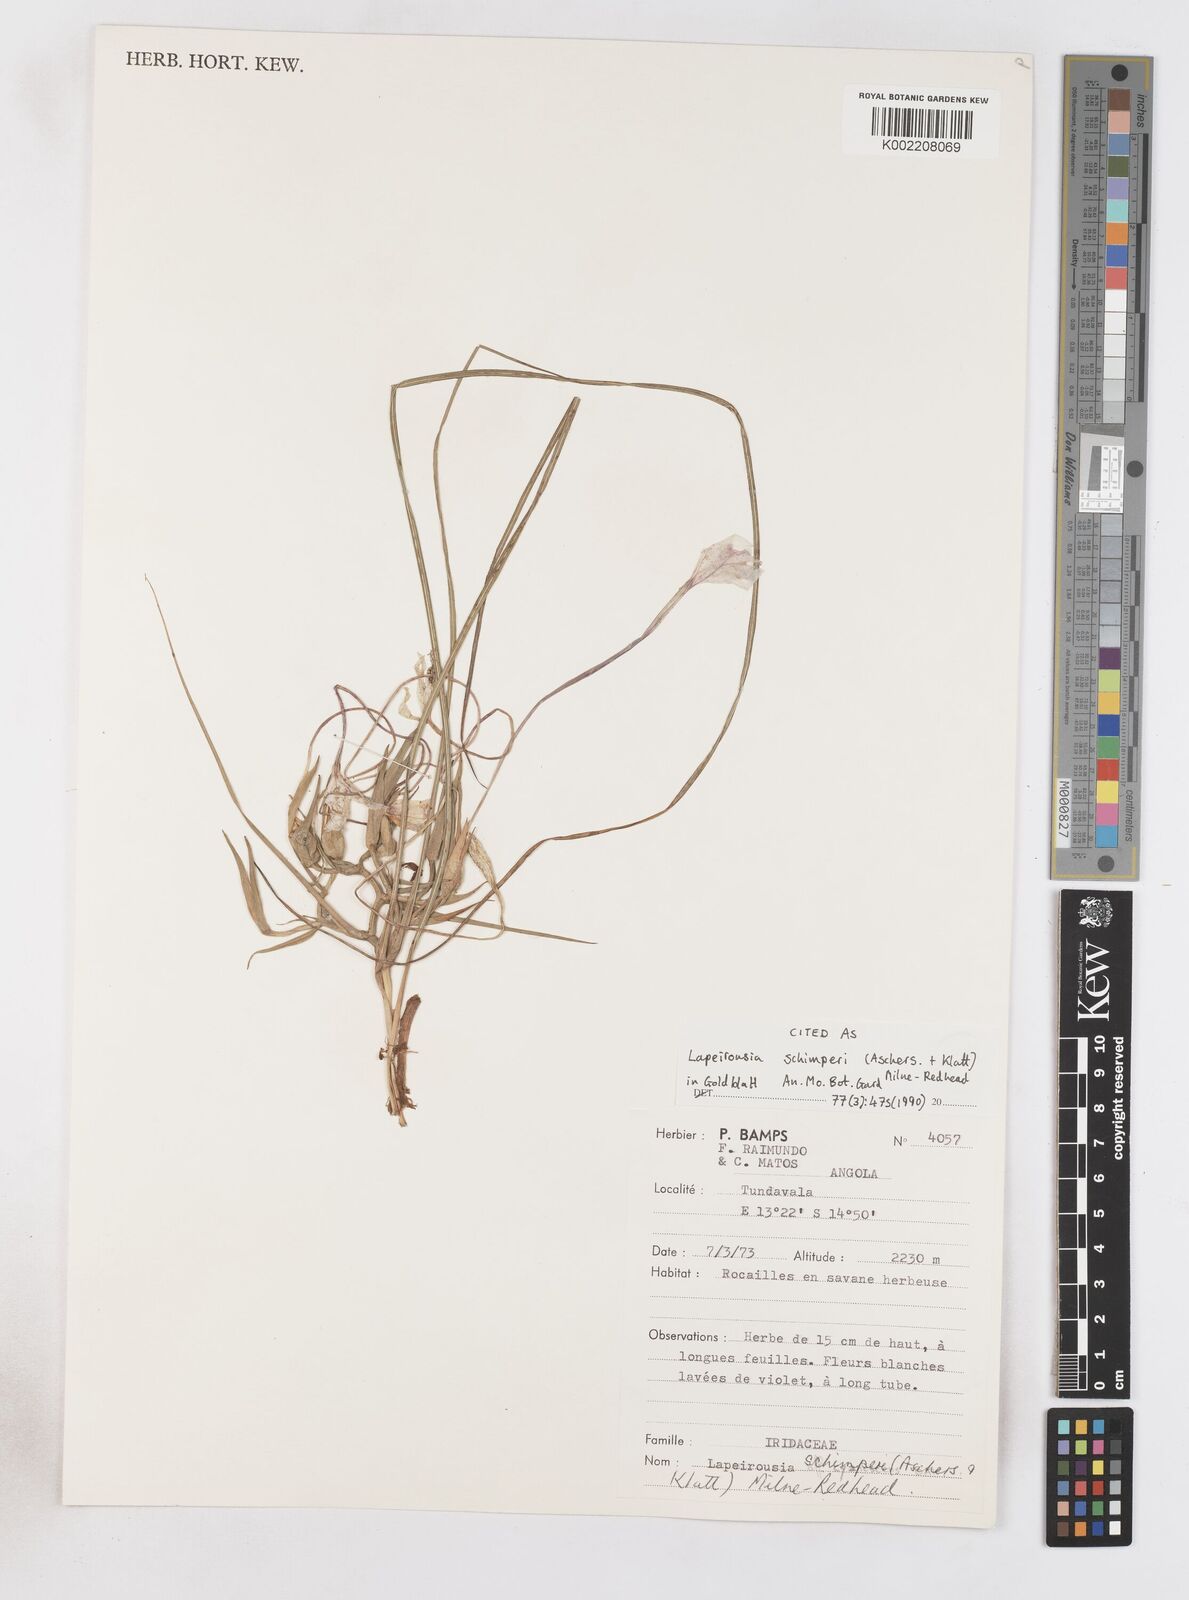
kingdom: Plantae
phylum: Tracheophyta
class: Liliopsida
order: Asparagales
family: Iridaceae
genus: Afrosolen
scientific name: Afrosolen schimperi
